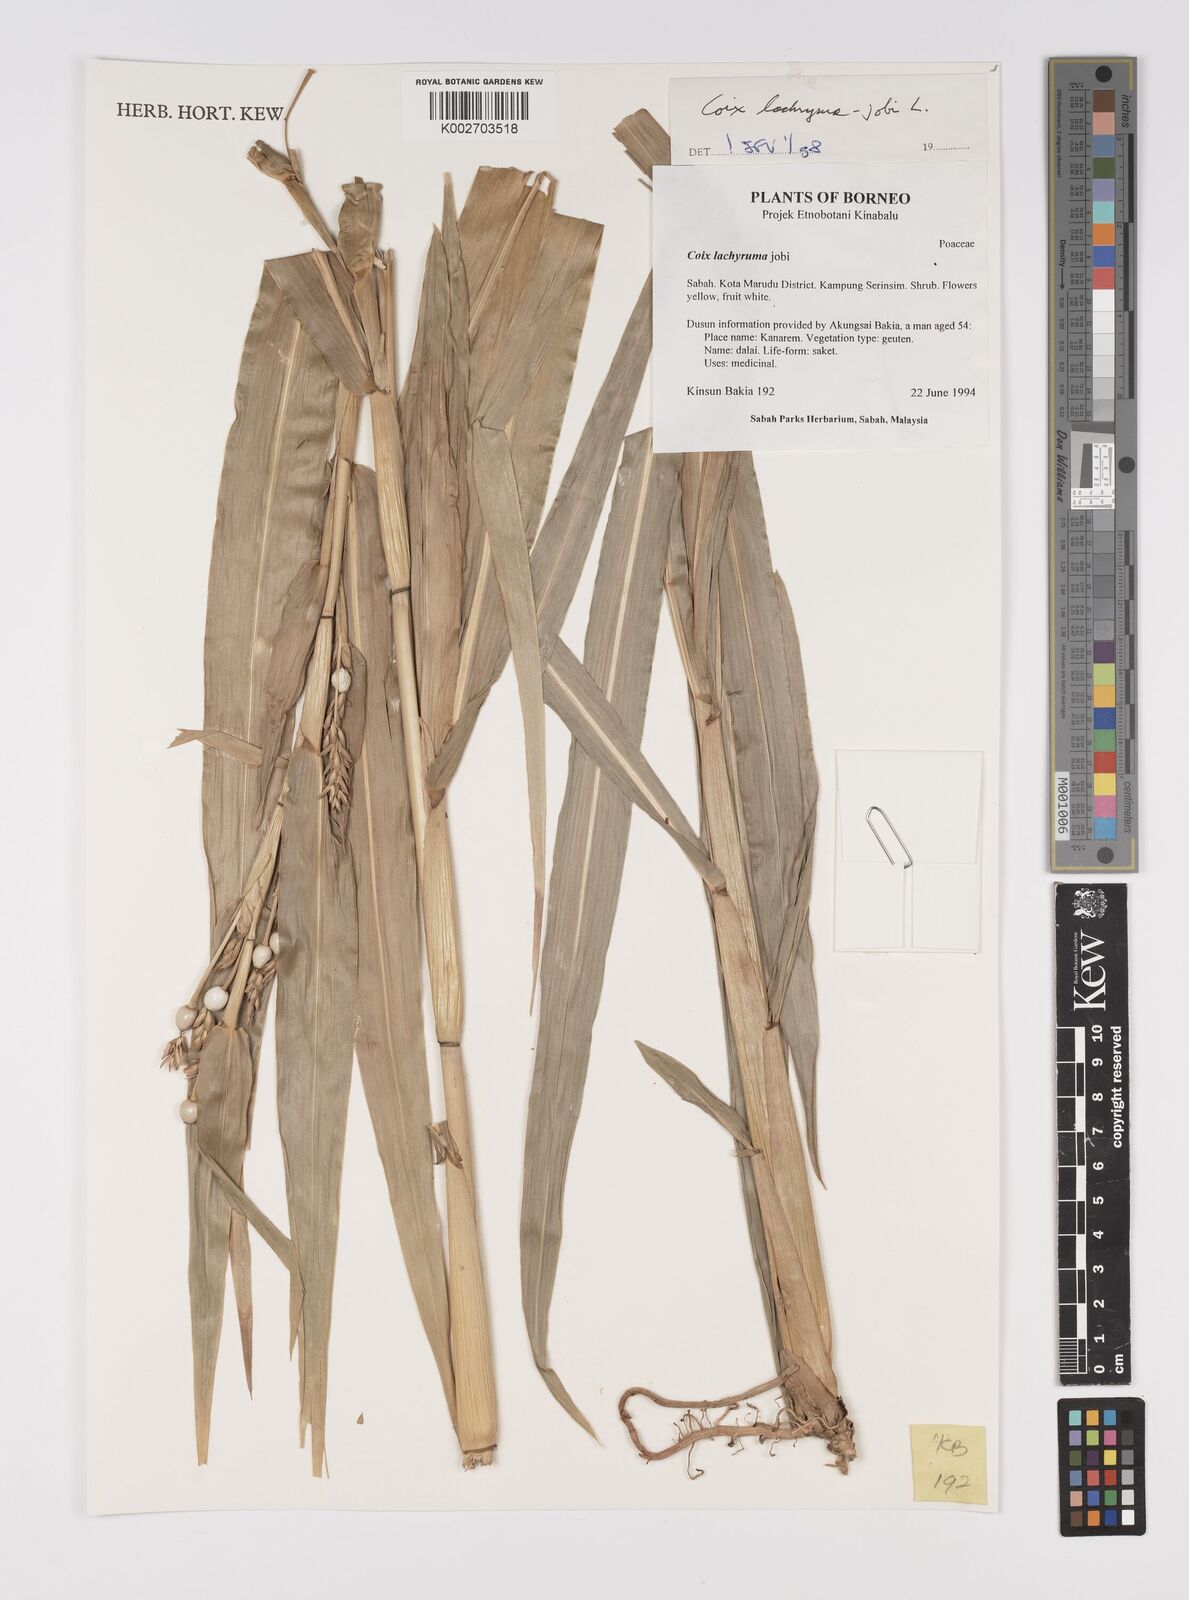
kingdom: Plantae
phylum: Tracheophyta
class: Liliopsida
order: Poales
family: Poaceae
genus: Coix
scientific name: Coix lacryma-jobi
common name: Job's tears
